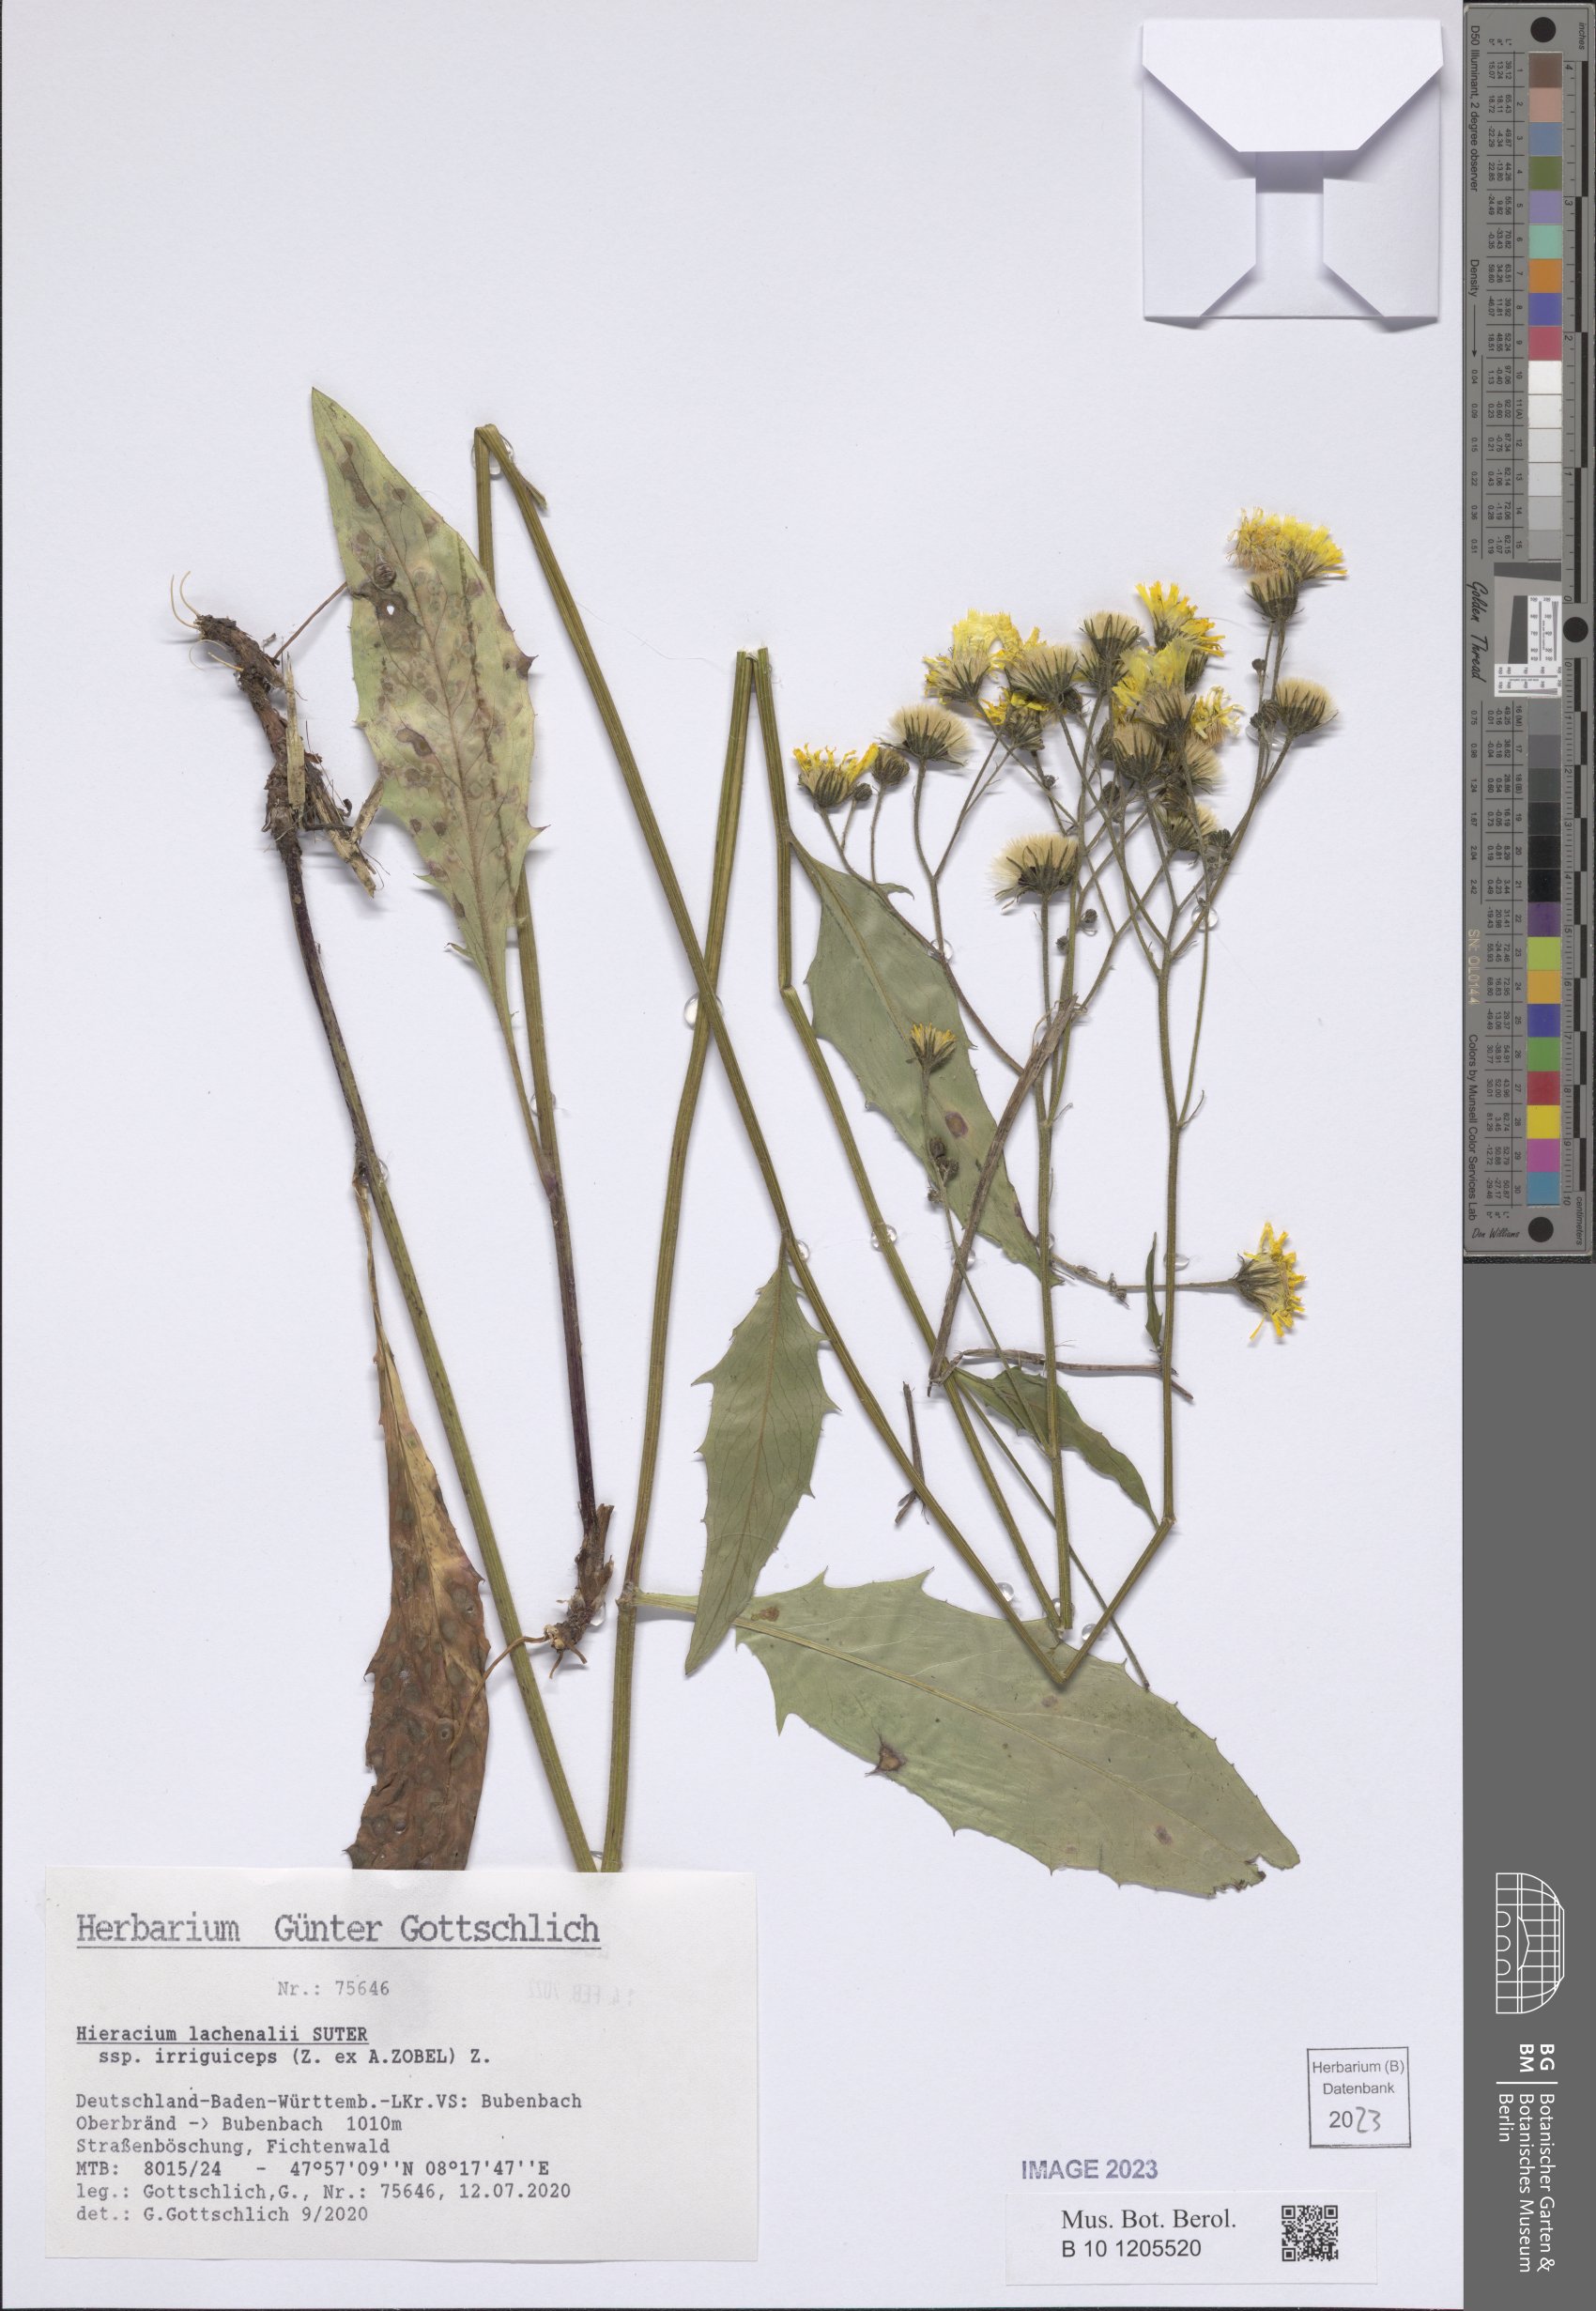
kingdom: Plantae
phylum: Tracheophyta
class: Magnoliopsida
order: Asterales
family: Asteraceae
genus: Hieracium
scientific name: Hieracium lachenalii
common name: Common hawkweed
